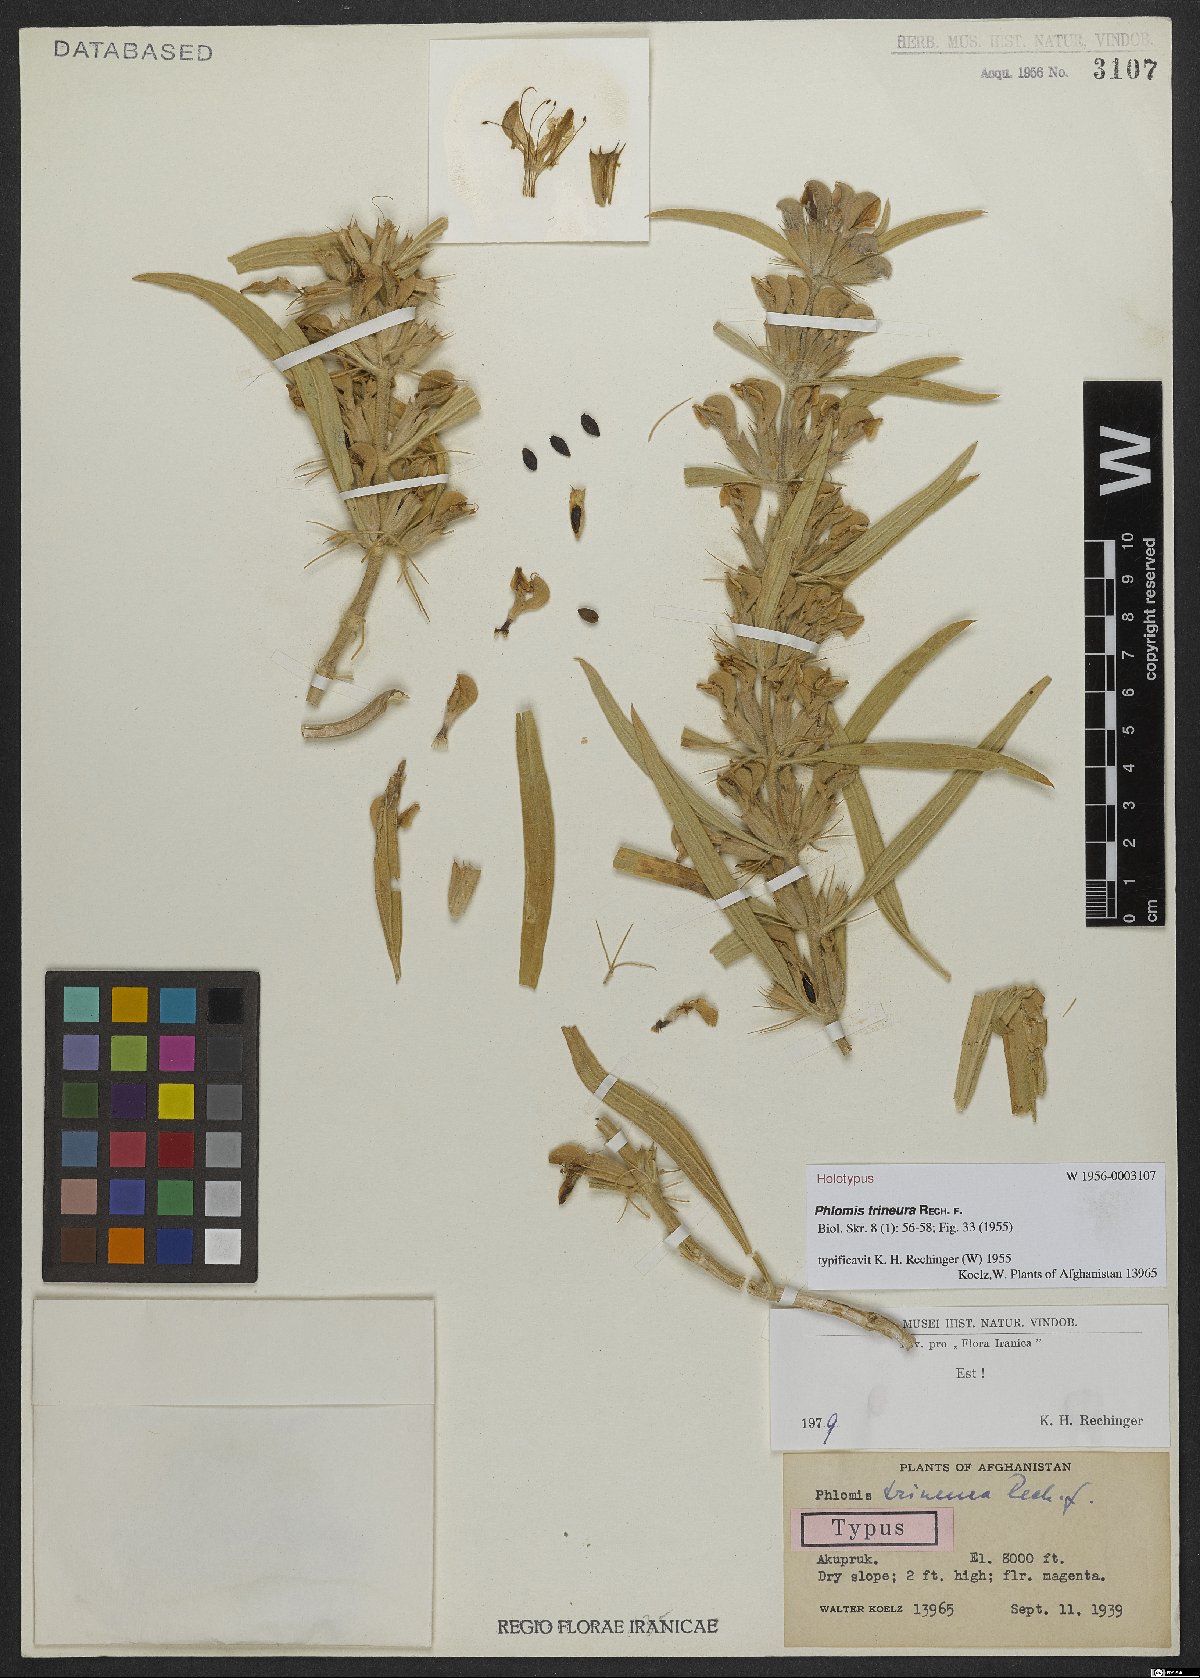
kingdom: Plantae
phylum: Tracheophyta
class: Magnoliopsida
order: Lamiales
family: Lamiaceae
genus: Phlomis
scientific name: Phlomis trineura
